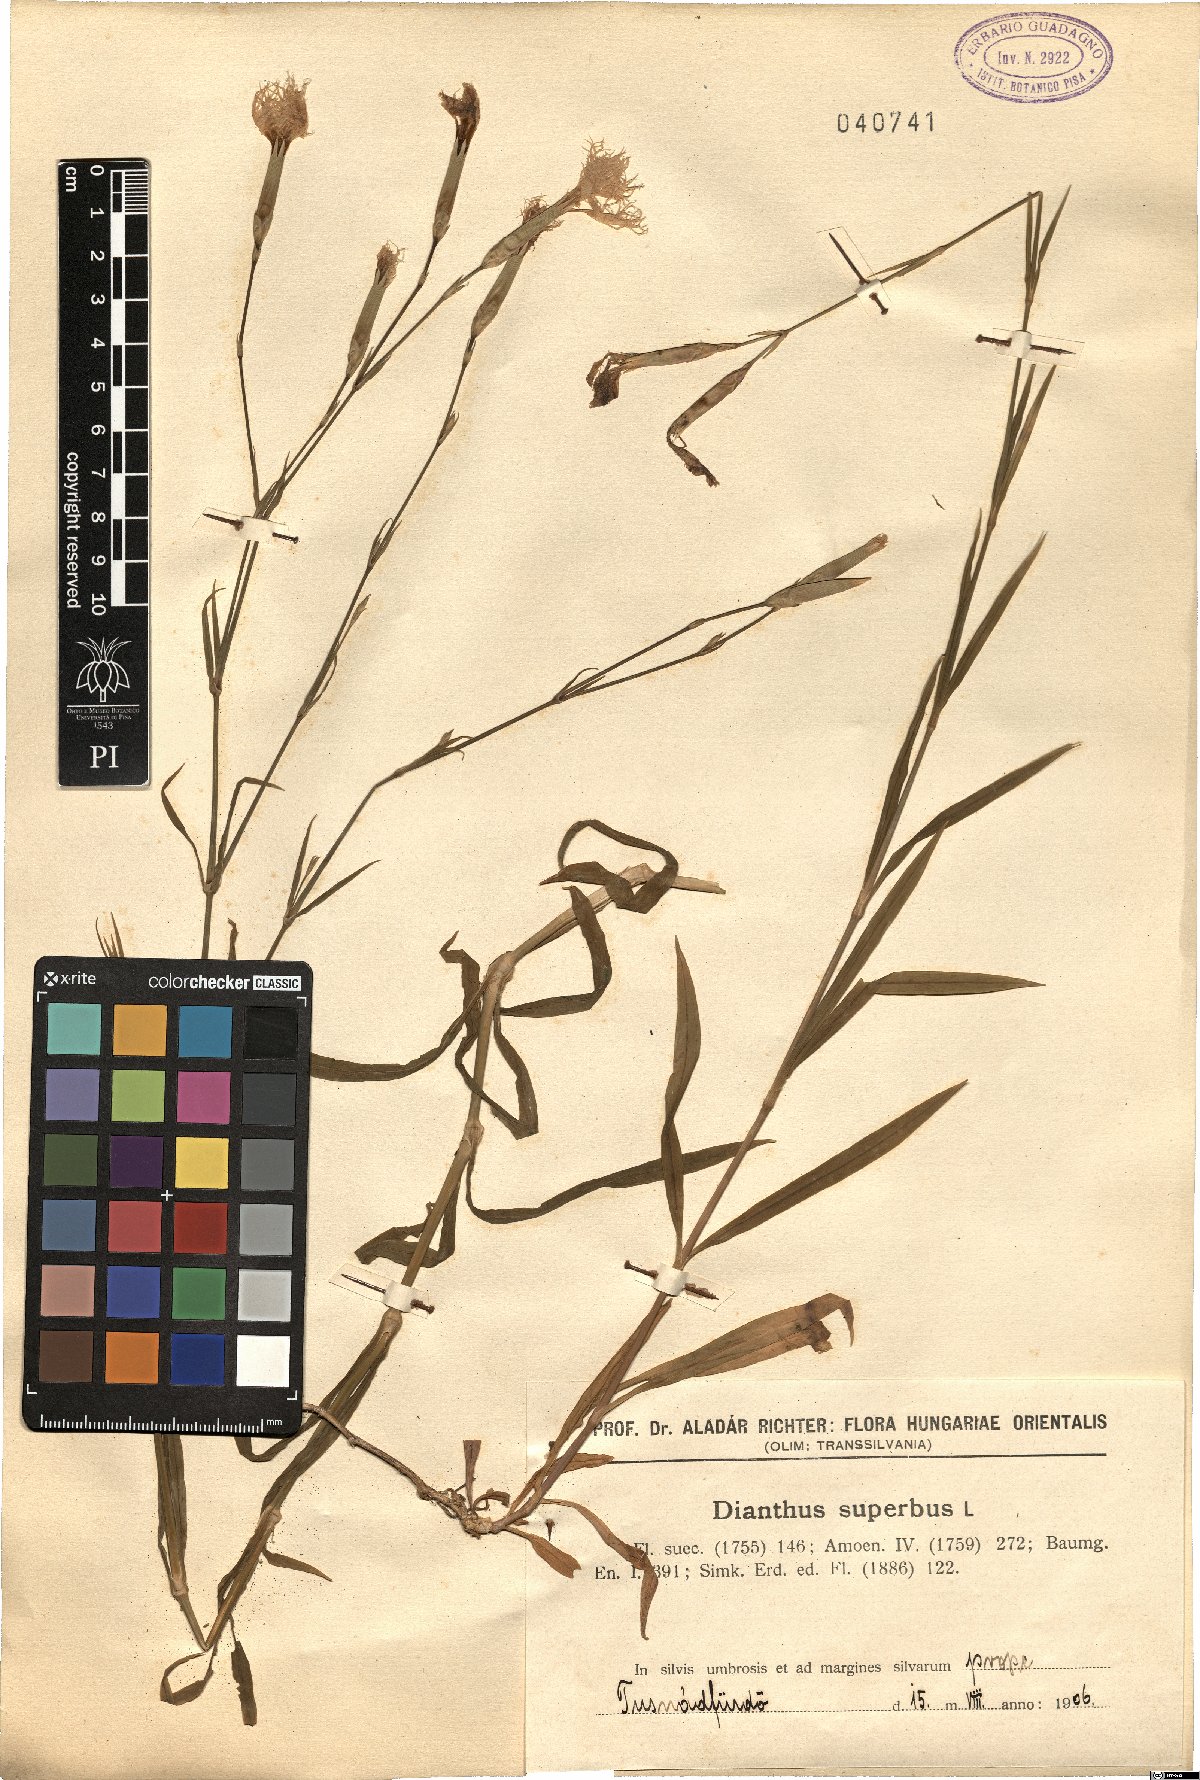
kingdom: Plantae
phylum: Tracheophyta
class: Magnoliopsida
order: Caryophyllales
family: Caryophyllaceae
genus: Dianthus
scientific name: Dianthus superbus
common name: Fringed pink
